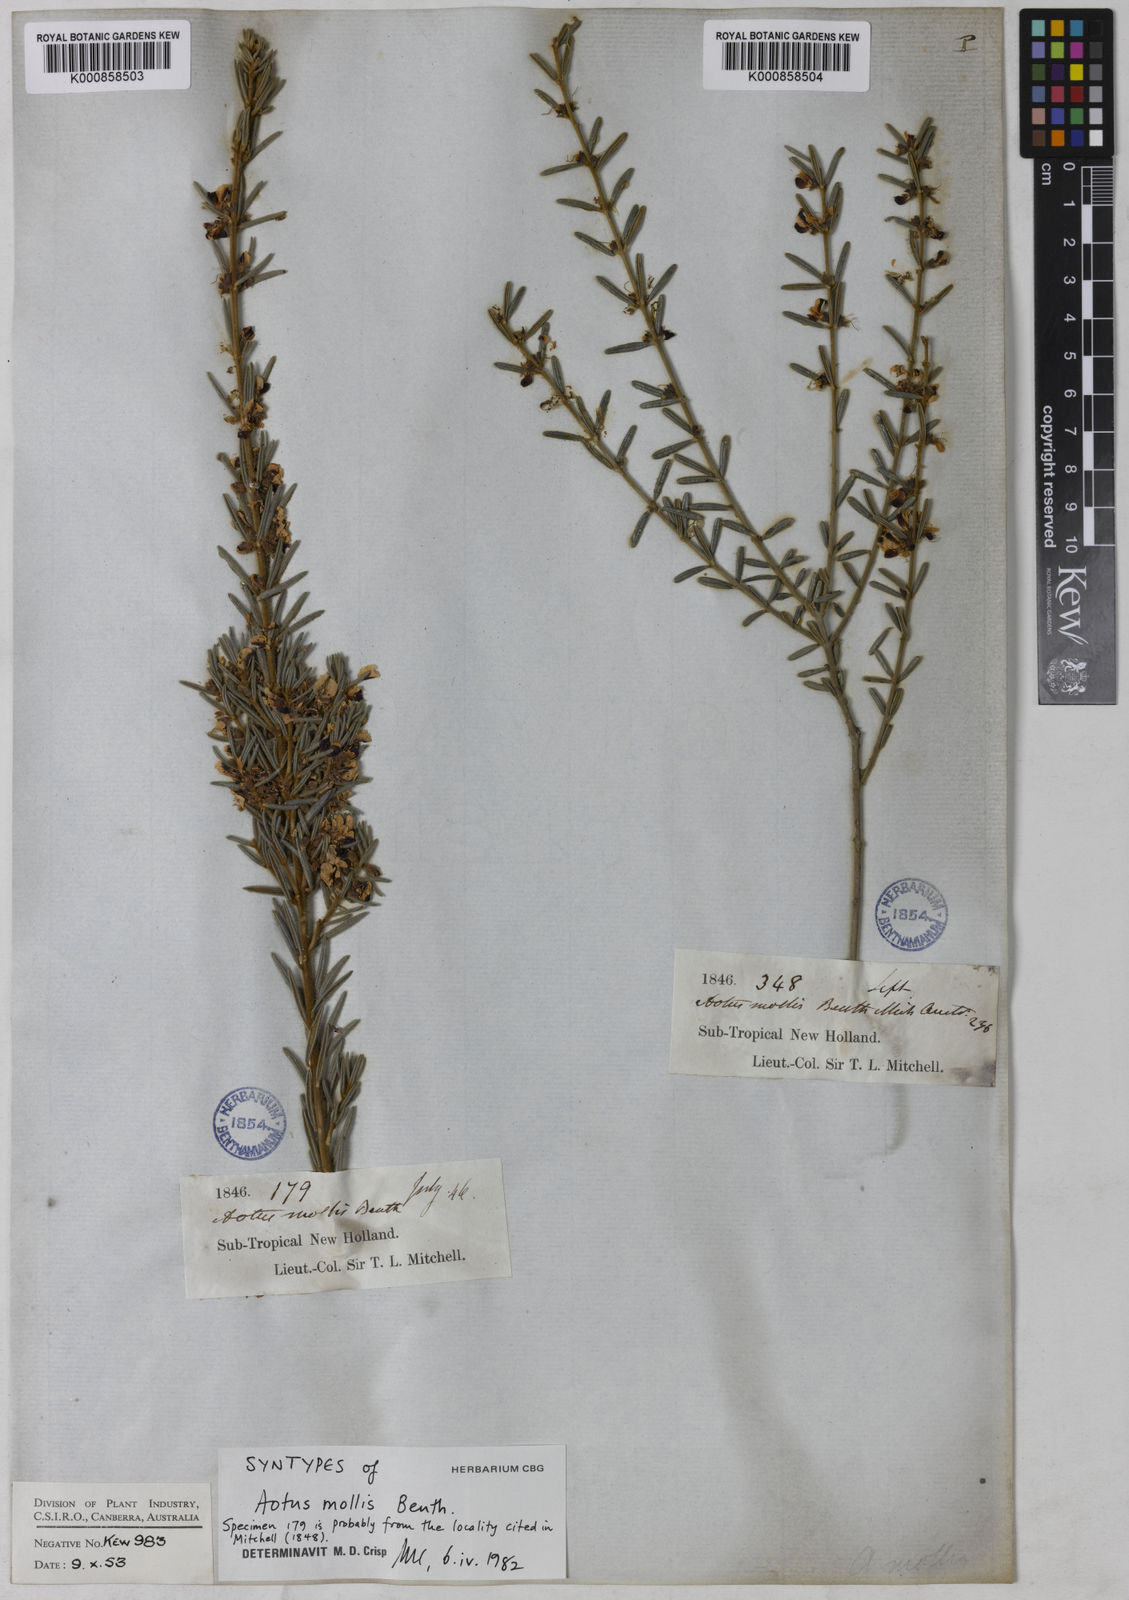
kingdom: Plantae
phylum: Tracheophyta
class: Magnoliopsida
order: Fabales
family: Fabaceae
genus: Aotus
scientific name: Aotus mollis
